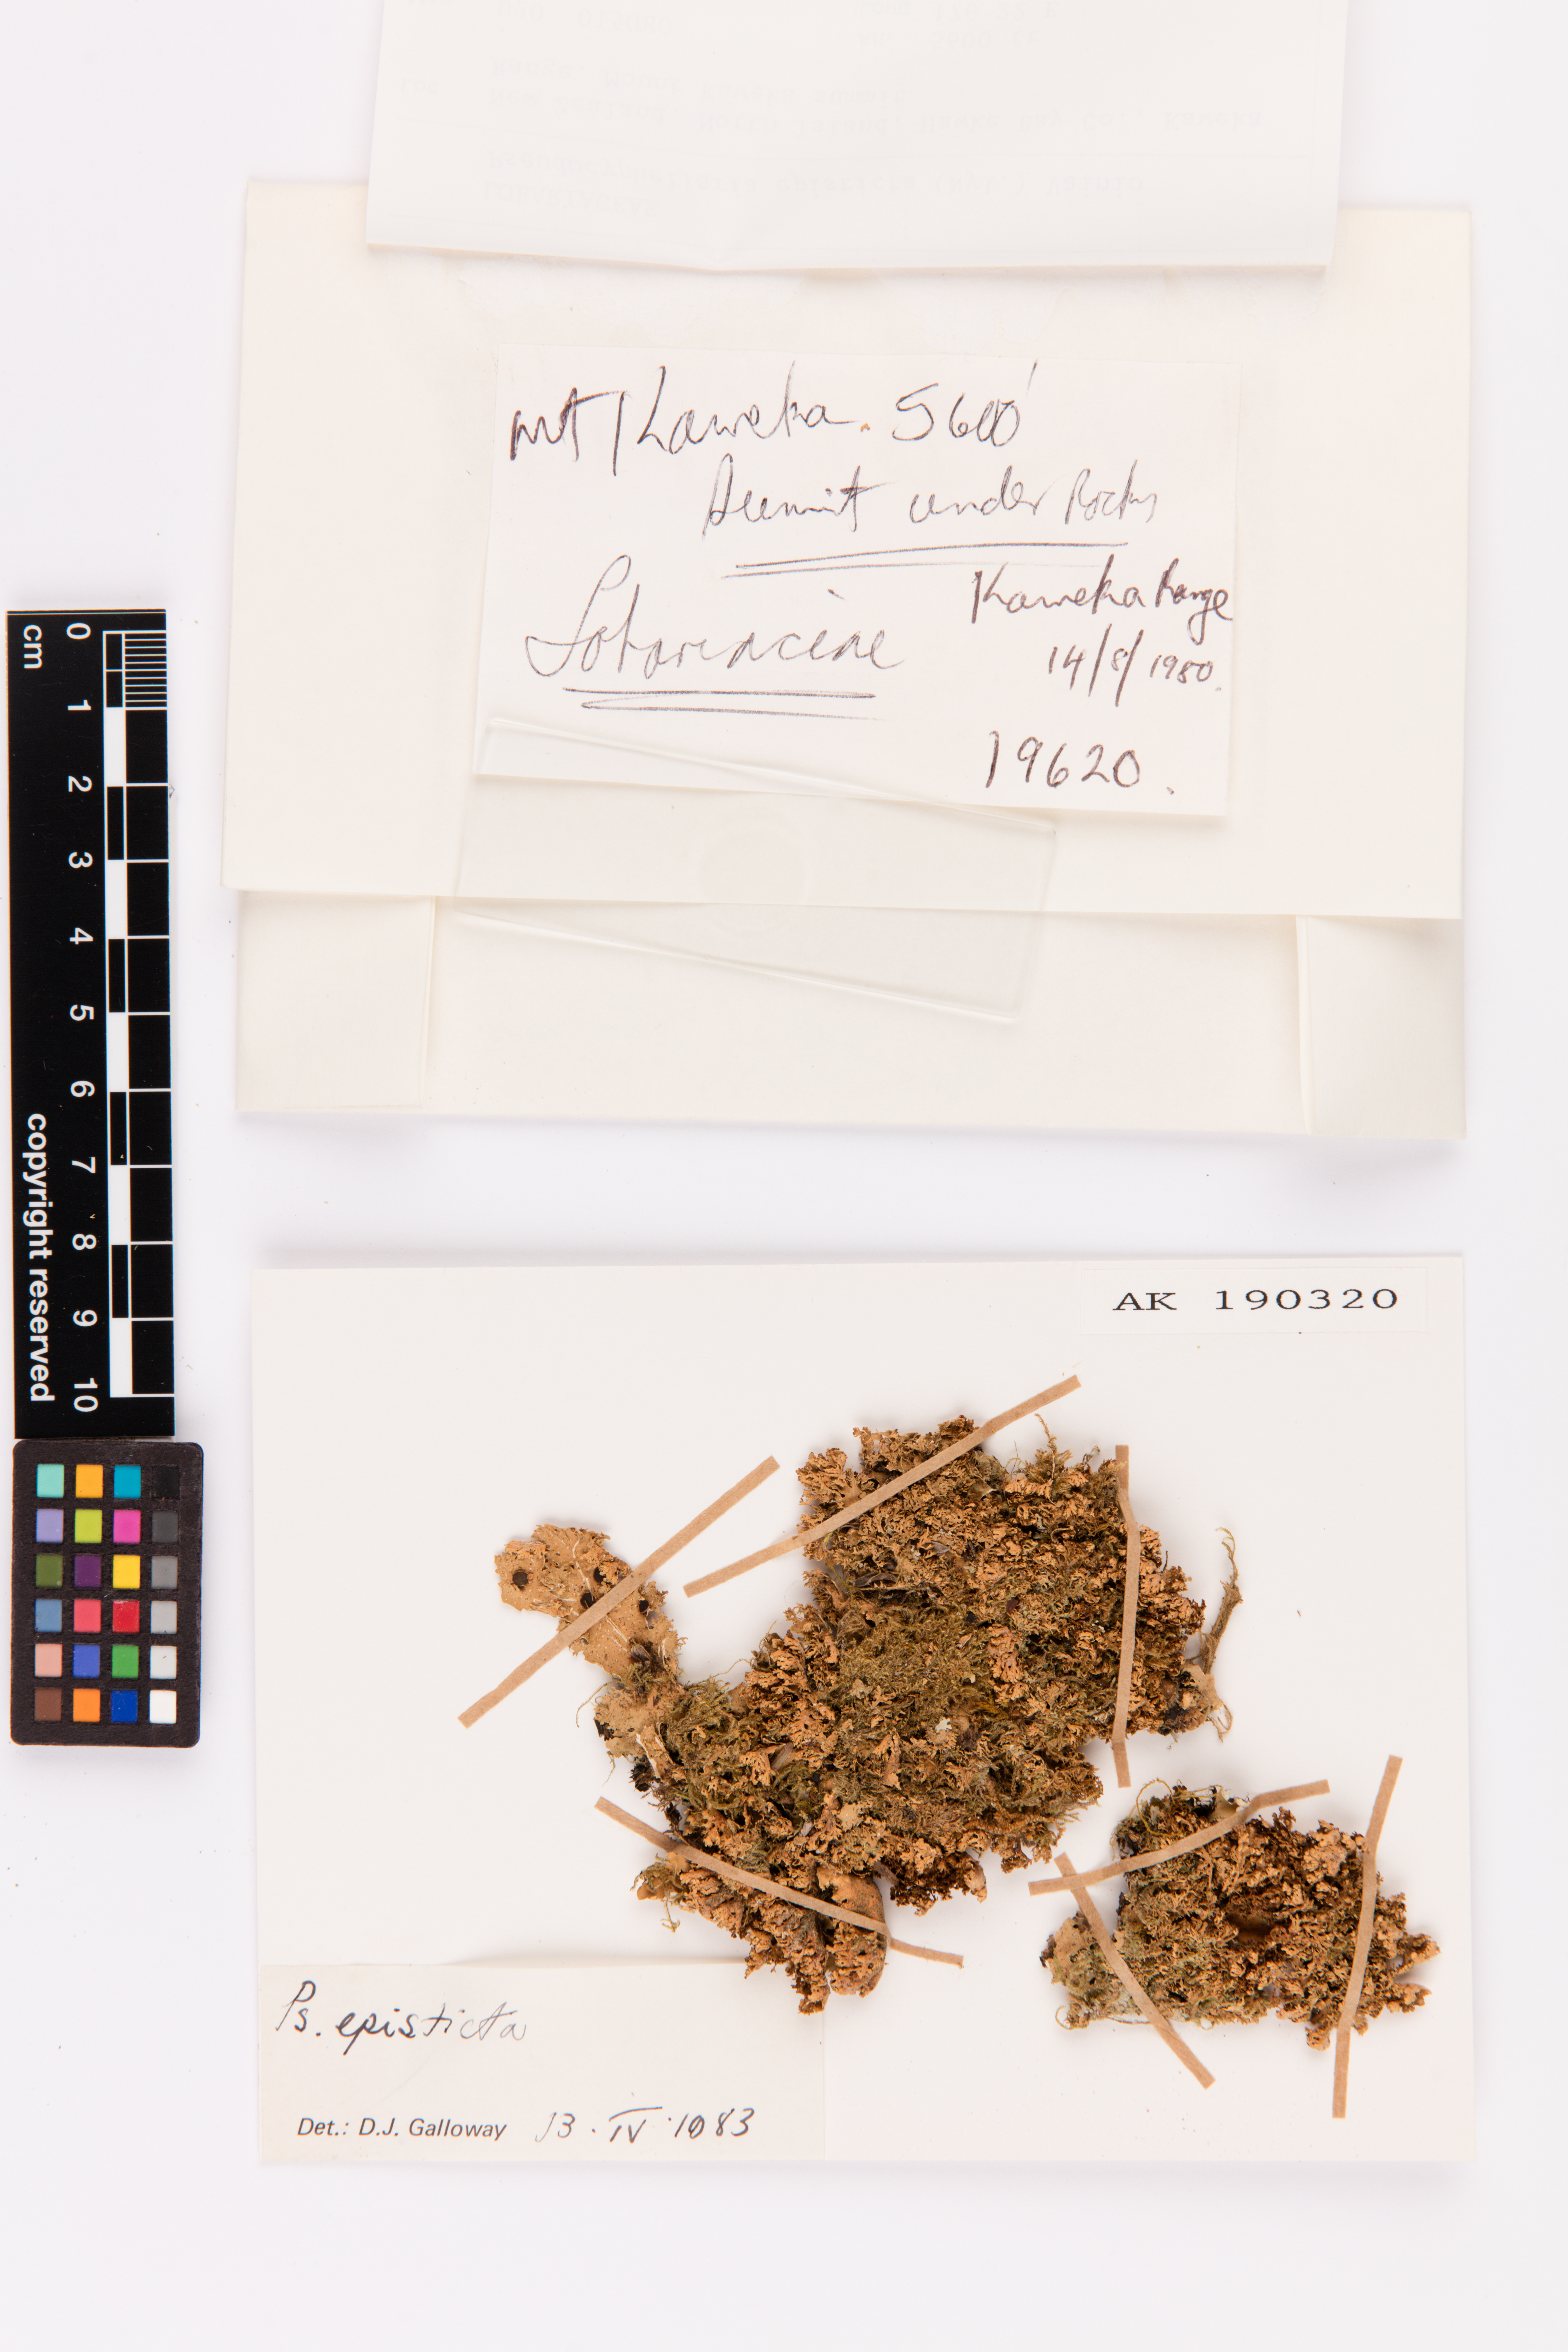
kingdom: Fungi
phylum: Ascomycota
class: Lecanoromycetes
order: Peltigerales
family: Lobariaceae
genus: Pseudocyphellaria
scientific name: Pseudocyphellaria episticta
